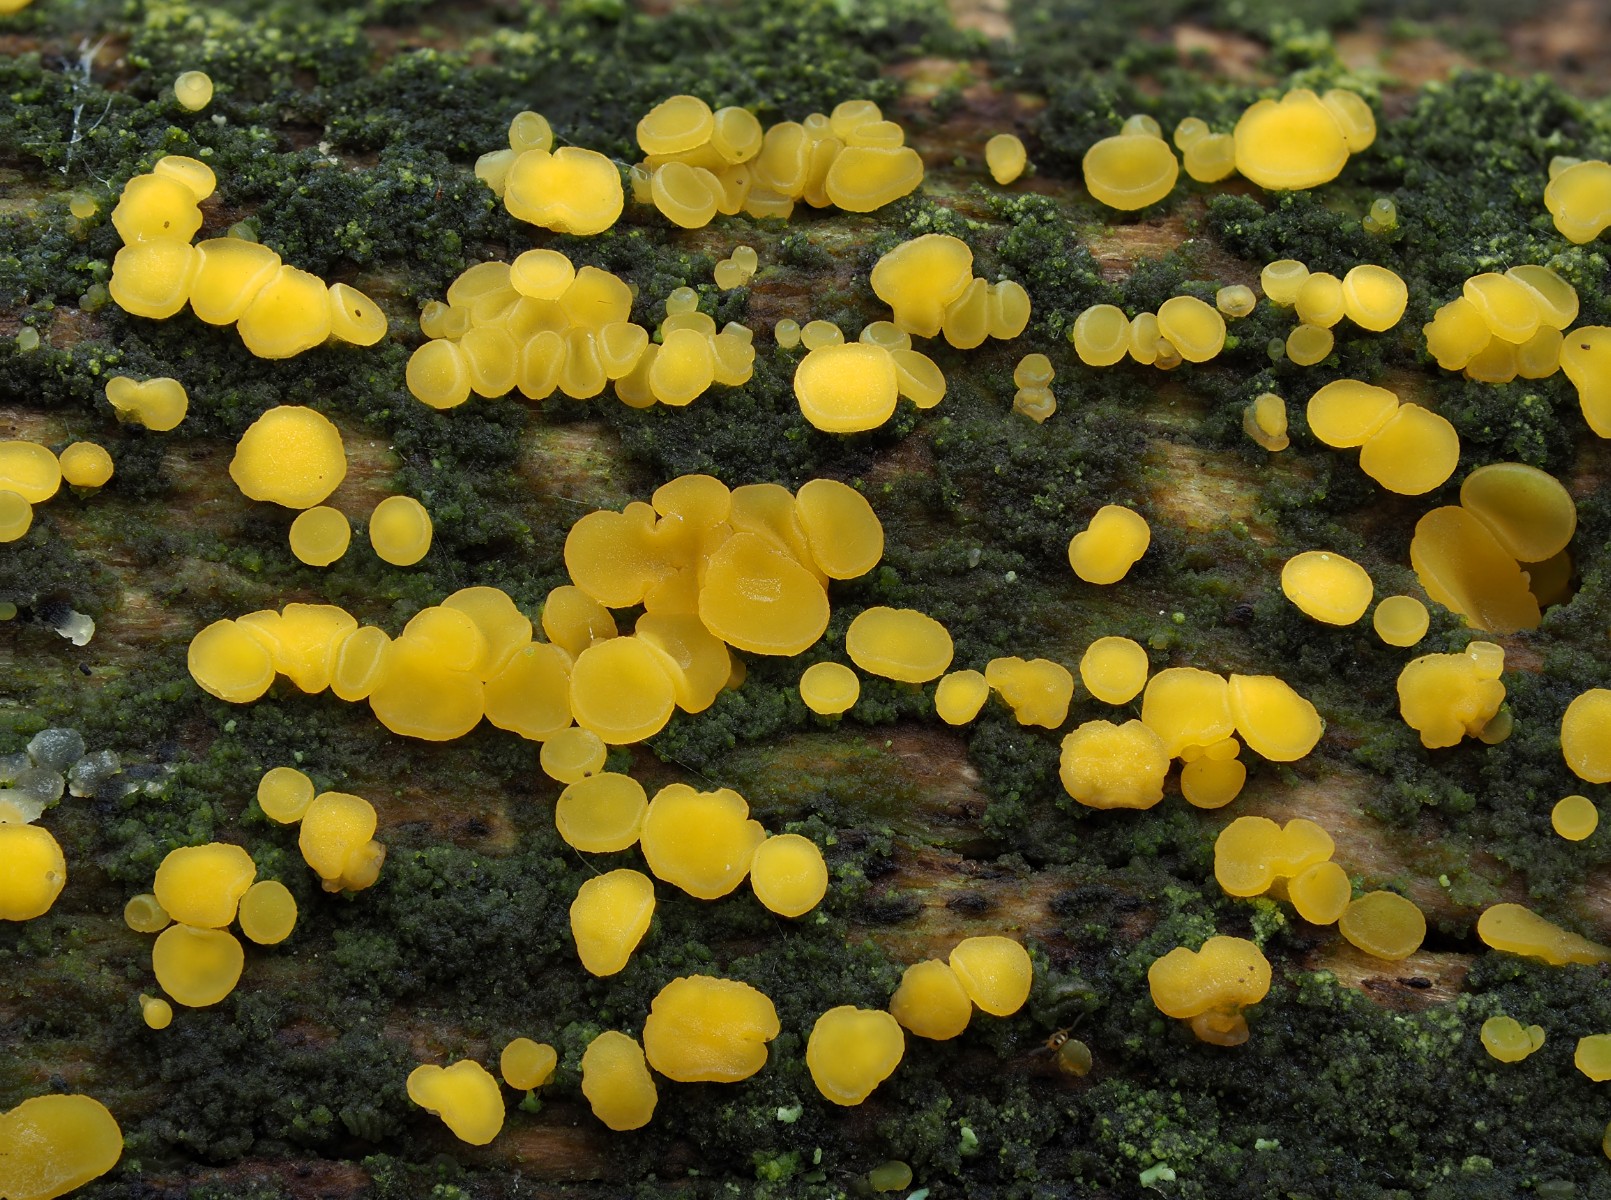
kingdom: Fungi
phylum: Ascomycota
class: Leotiomycetes
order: Helotiales
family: Pezizellaceae
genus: Calycina
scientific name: Calycina citrina
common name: almindelig gulskive
